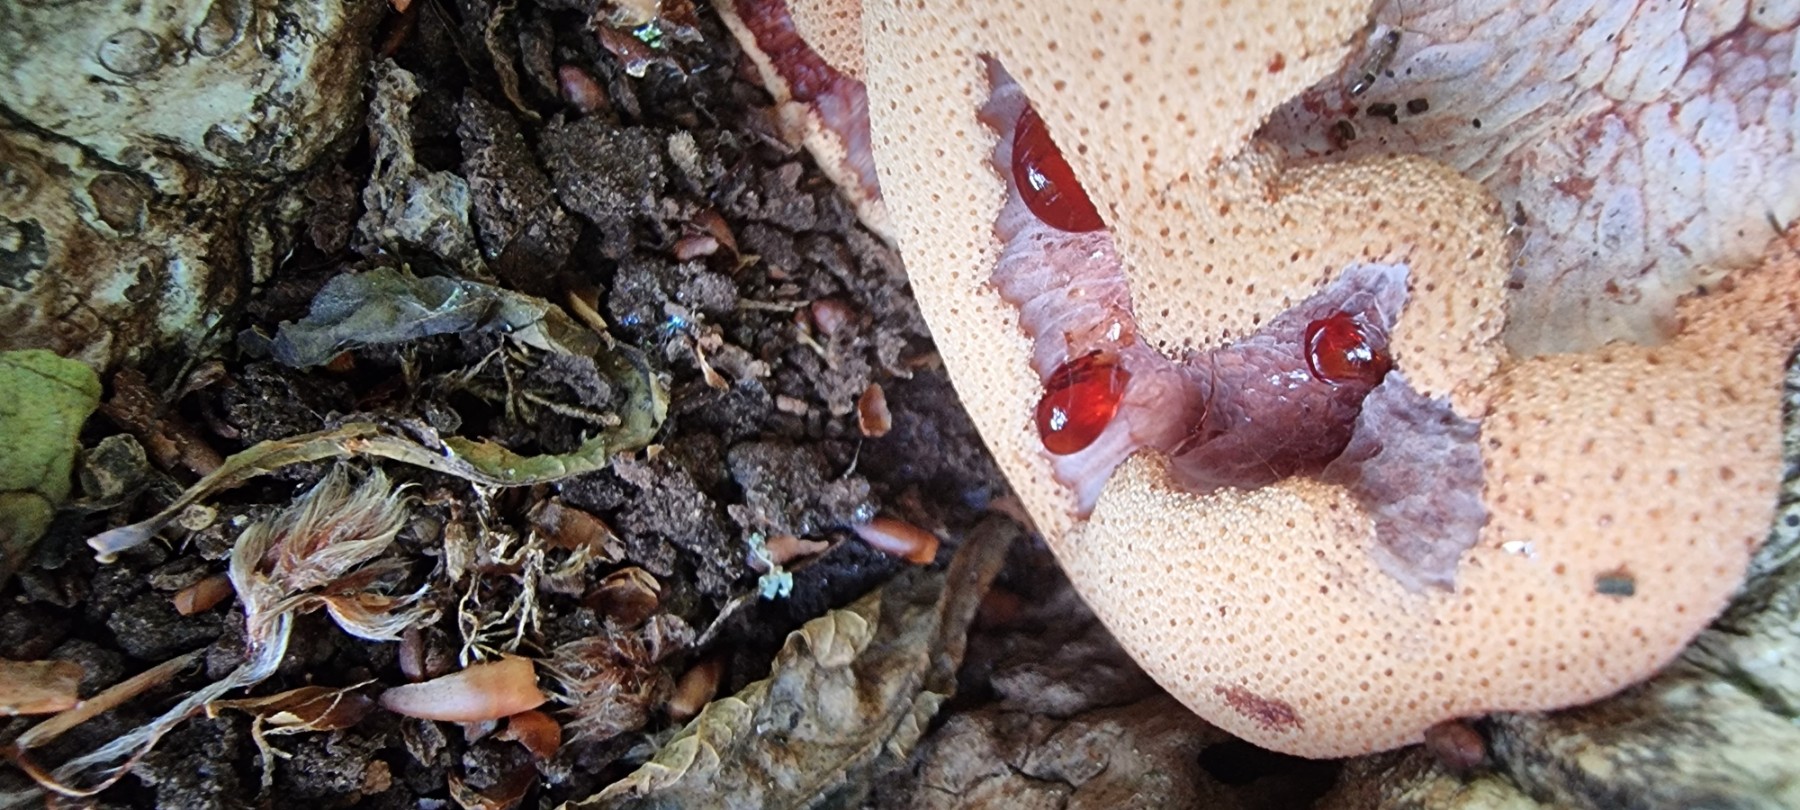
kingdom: Fungi
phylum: Basidiomycota
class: Agaricomycetes
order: Agaricales
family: Fistulinaceae
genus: Fistulina
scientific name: Fistulina hepatica
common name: oksetunge
